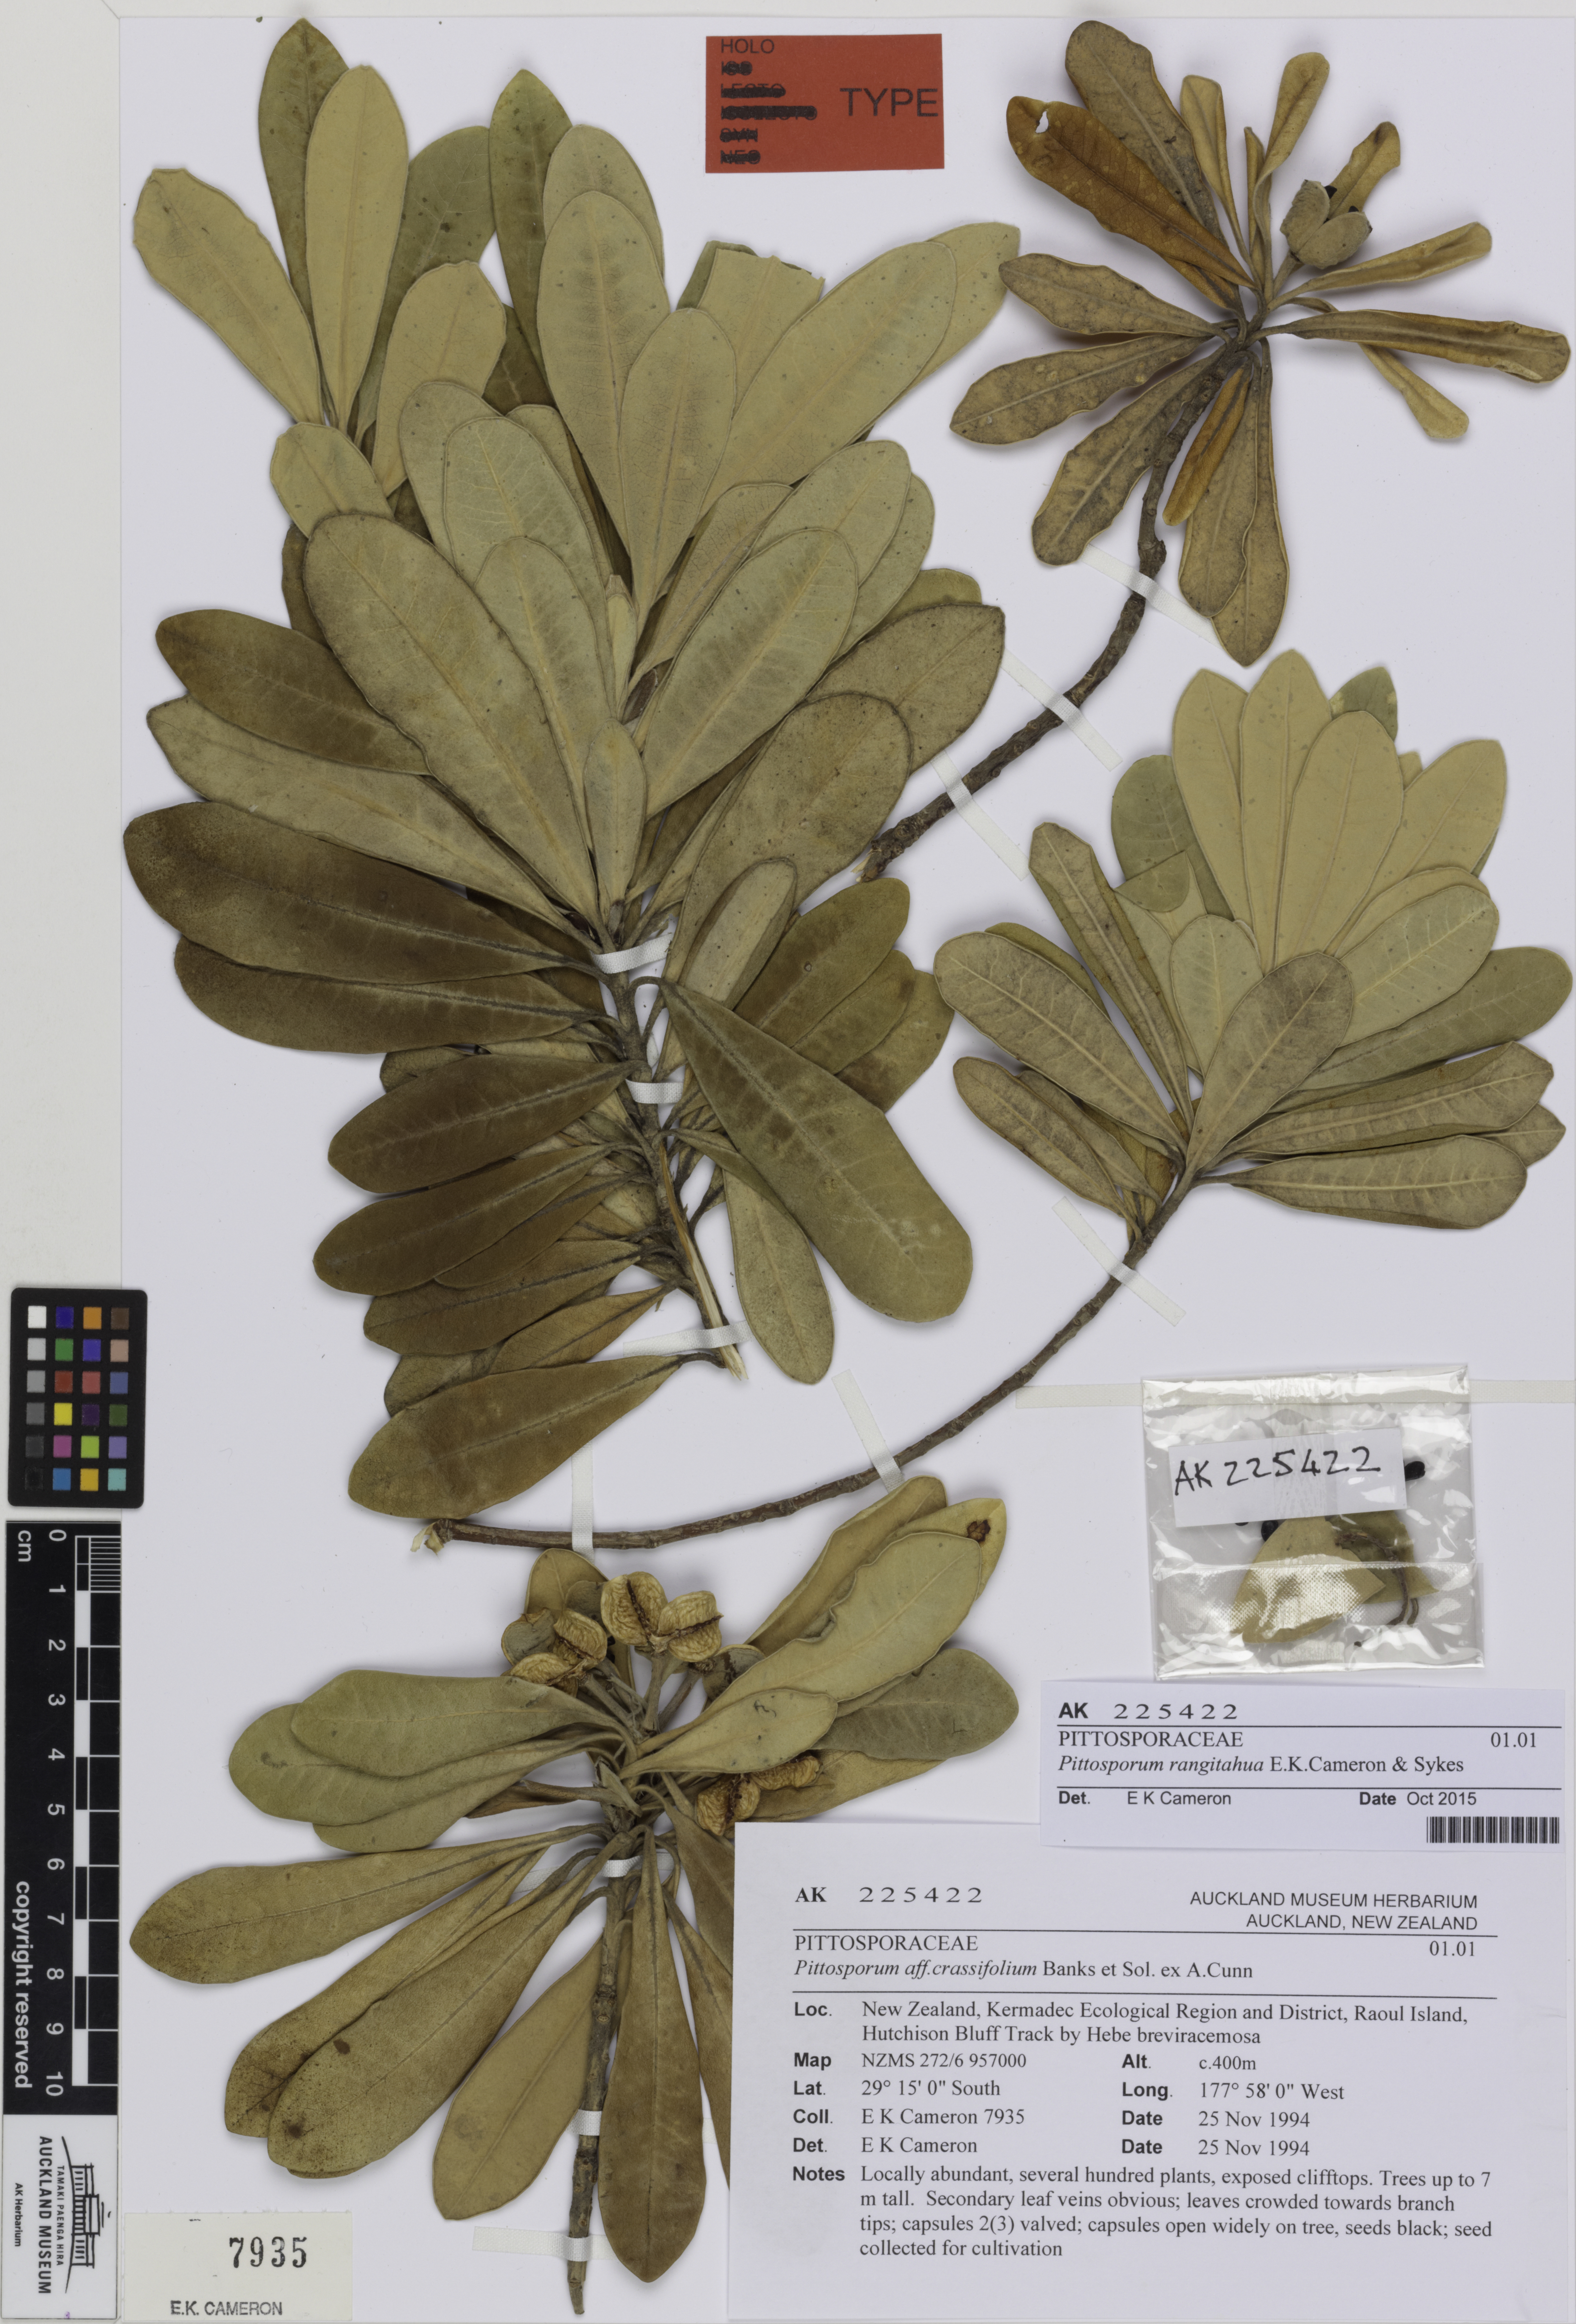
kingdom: Plantae
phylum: Tracheophyta
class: Magnoliopsida
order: Apiales
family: Pittosporaceae
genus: Pittosporum
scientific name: Pittosporum rangitahua
